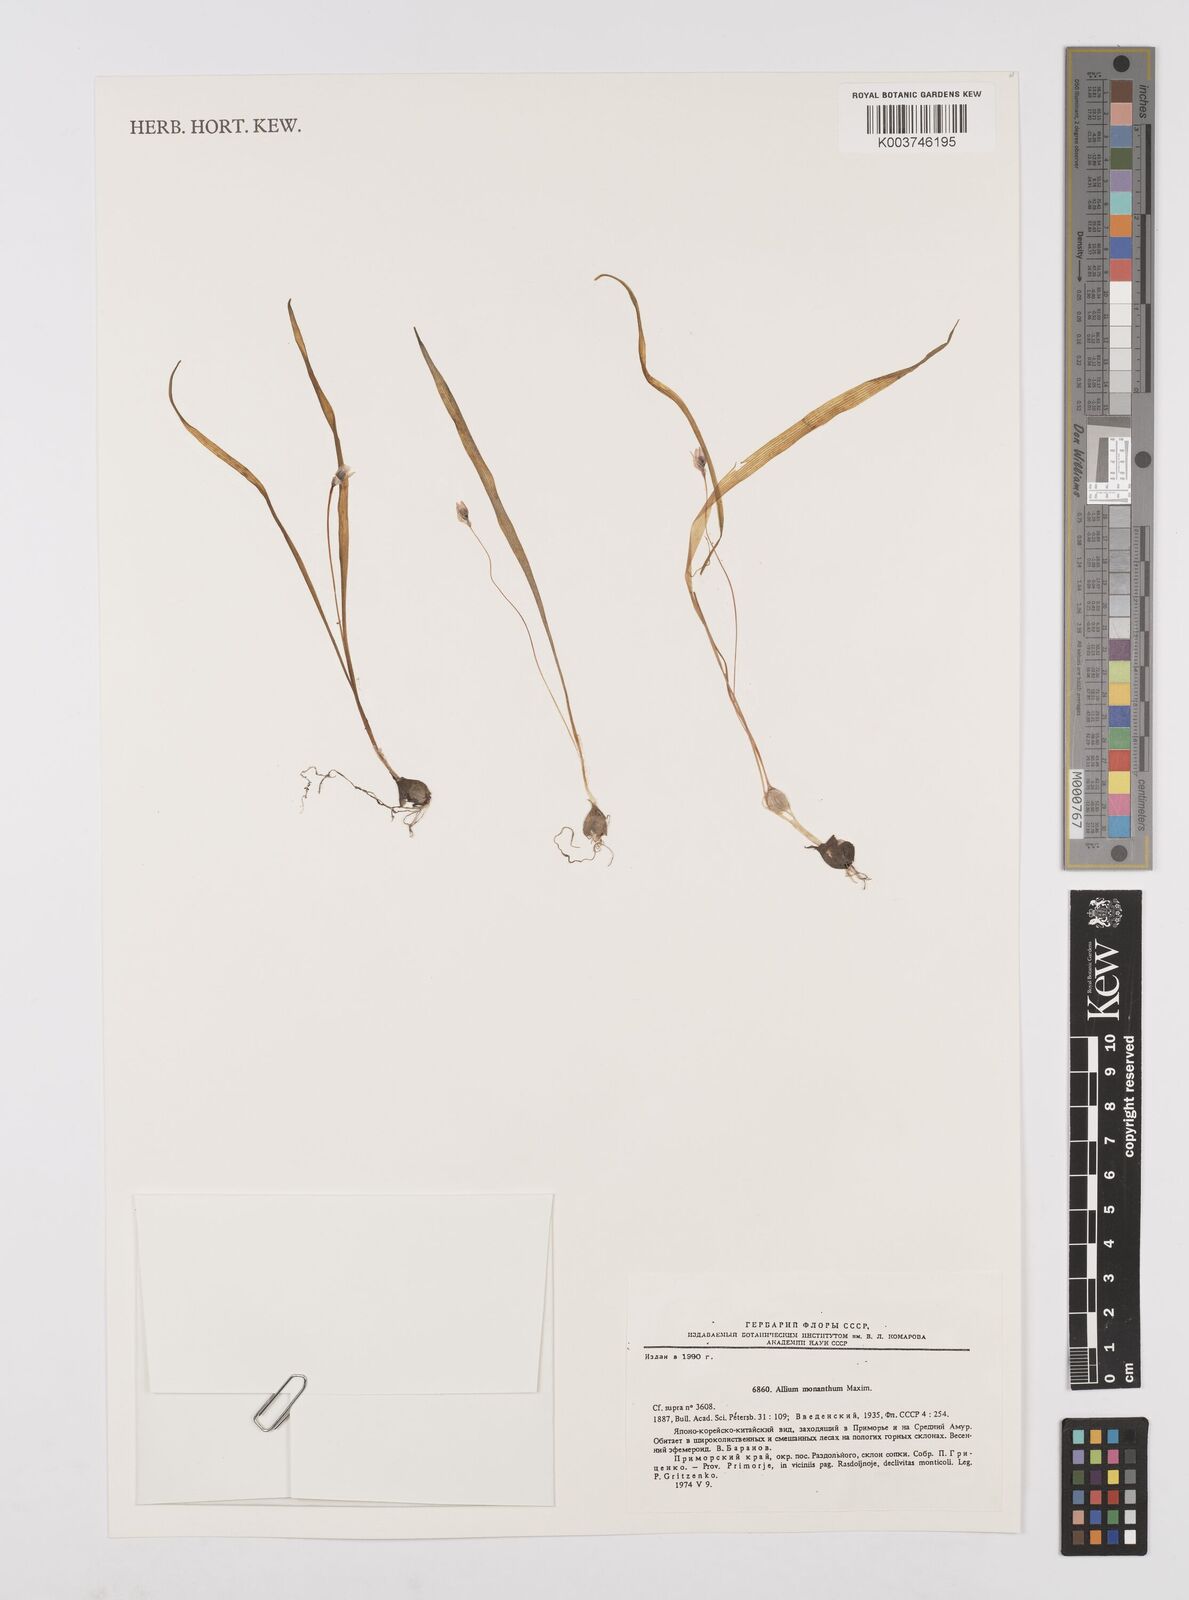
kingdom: Plantae
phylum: Tracheophyta
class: Liliopsida
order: Asparagales
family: Amaryllidaceae
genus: Allium
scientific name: Allium monanthum
